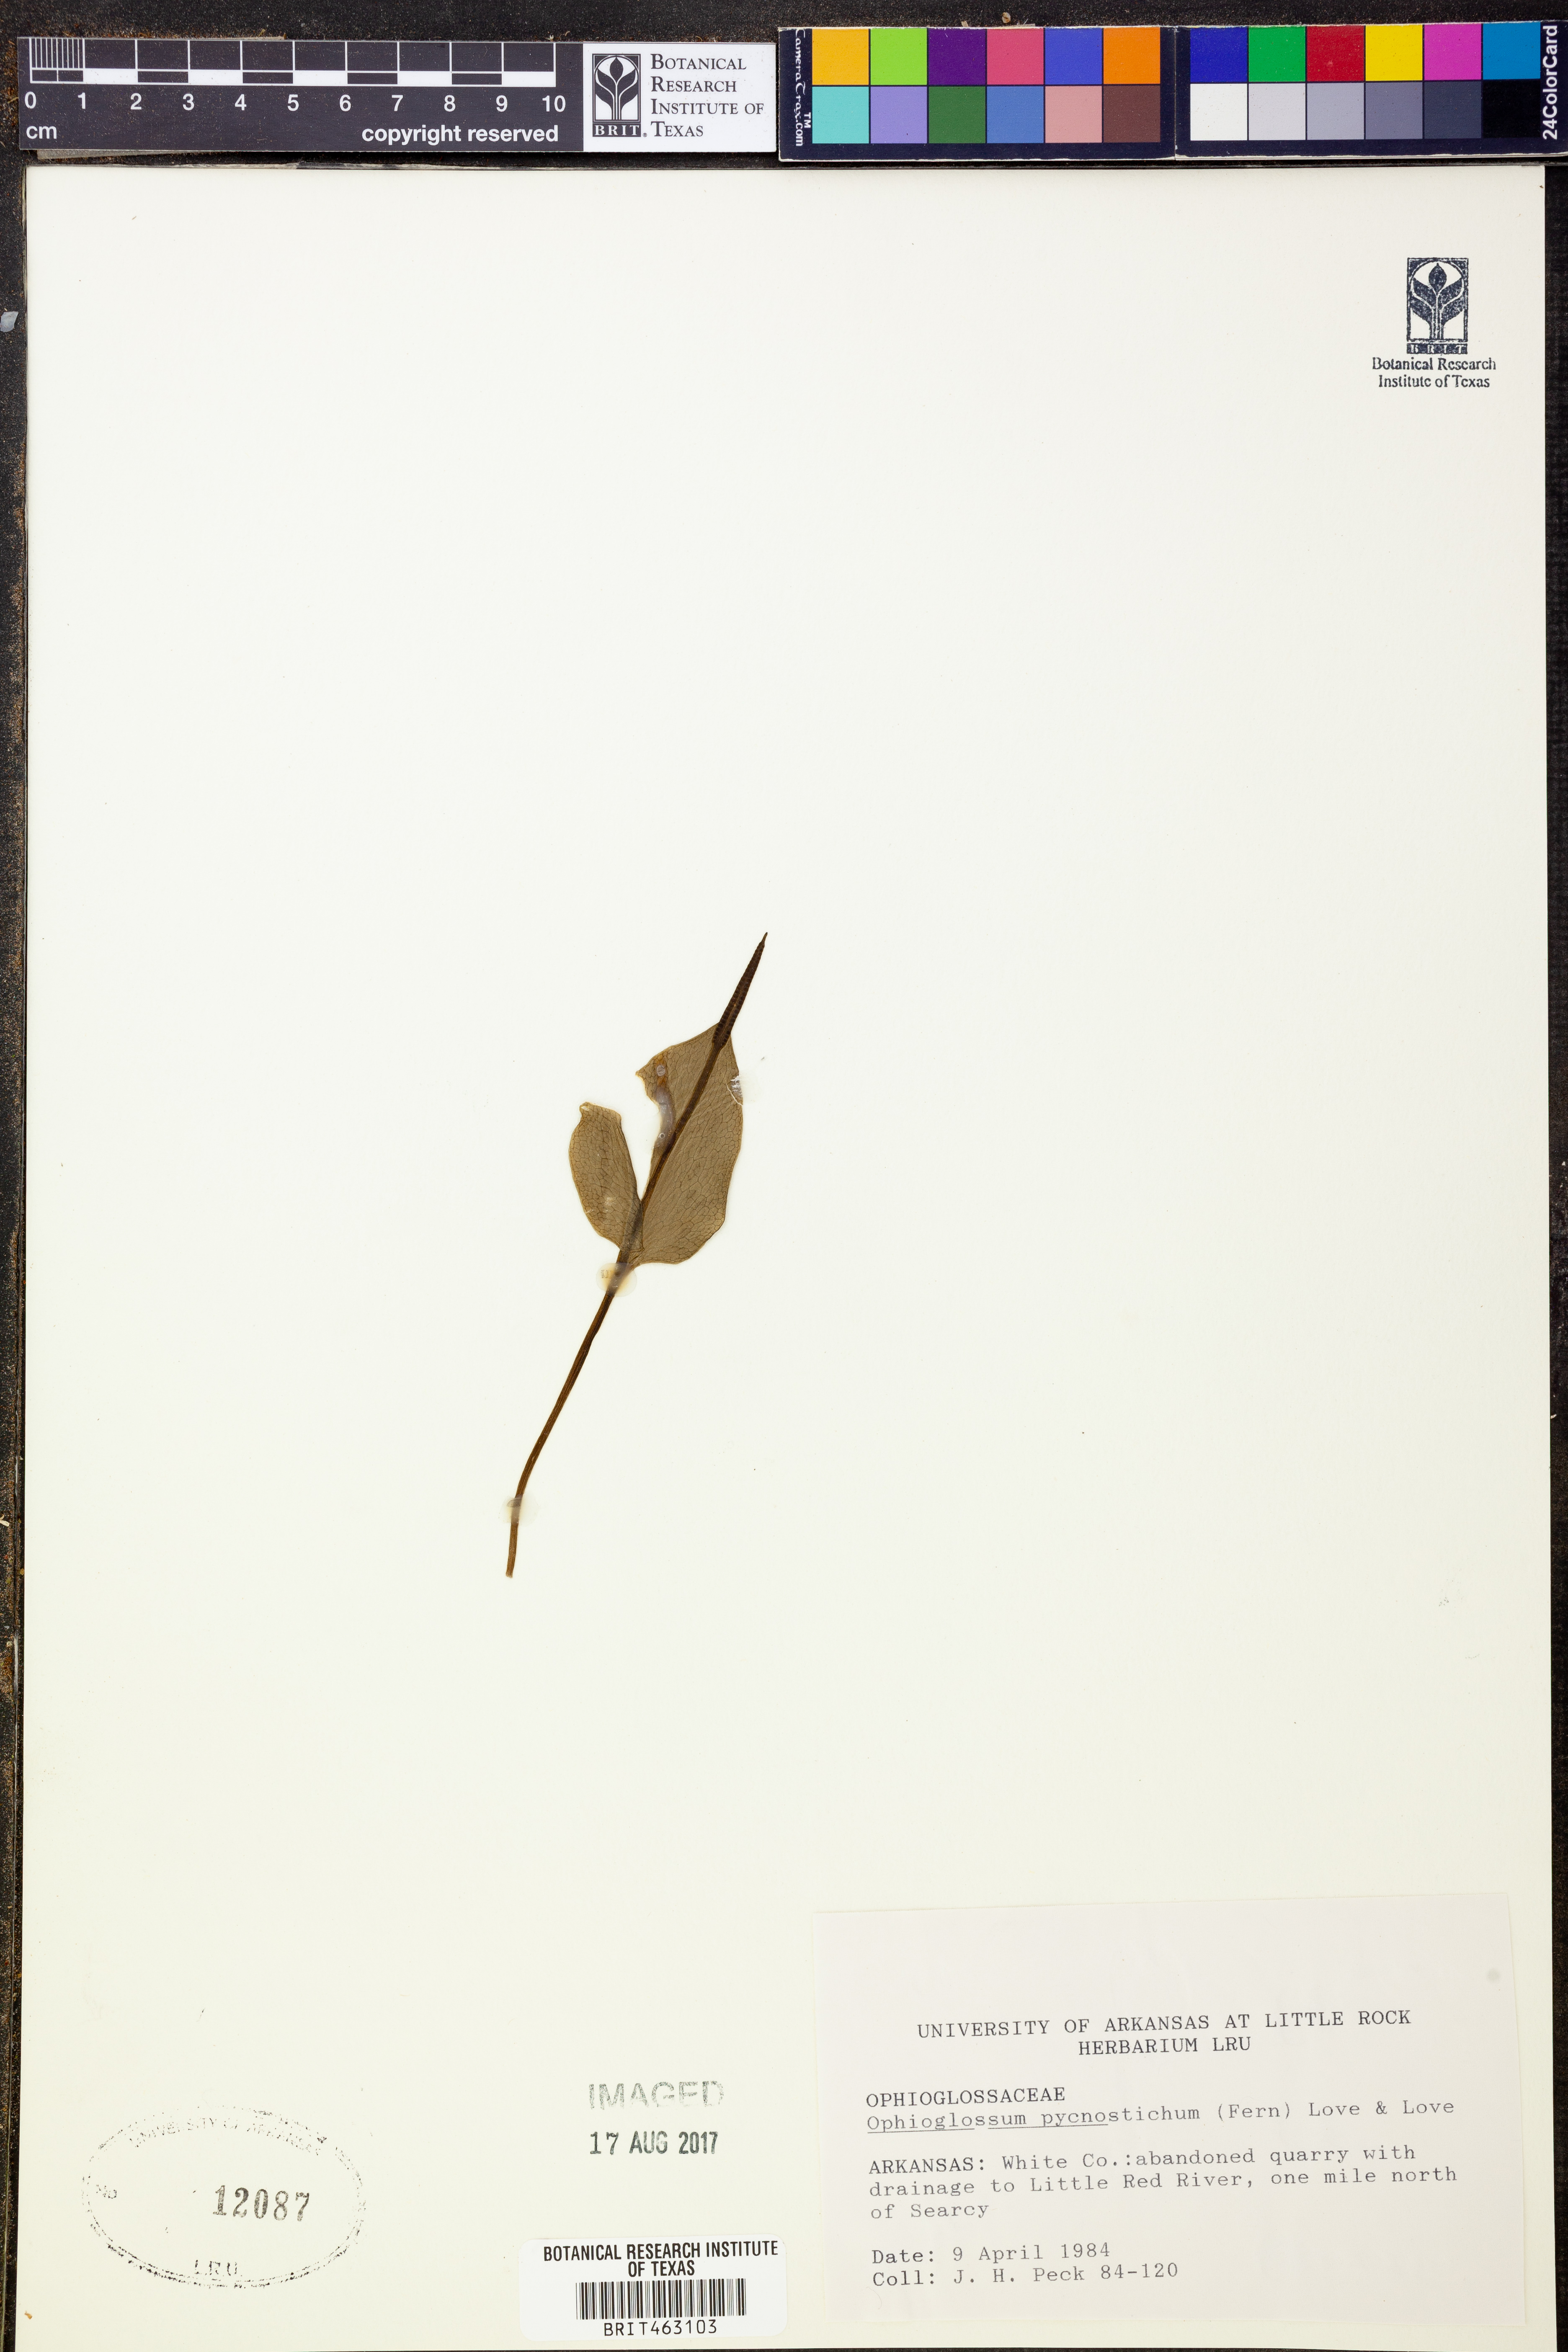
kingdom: Plantae
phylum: Tracheophyta
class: Polypodiopsida
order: Ophioglossales
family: Ophioglossaceae
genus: Ophioglossum
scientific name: Ophioglossum vulgatum
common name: Adder's-tongue
